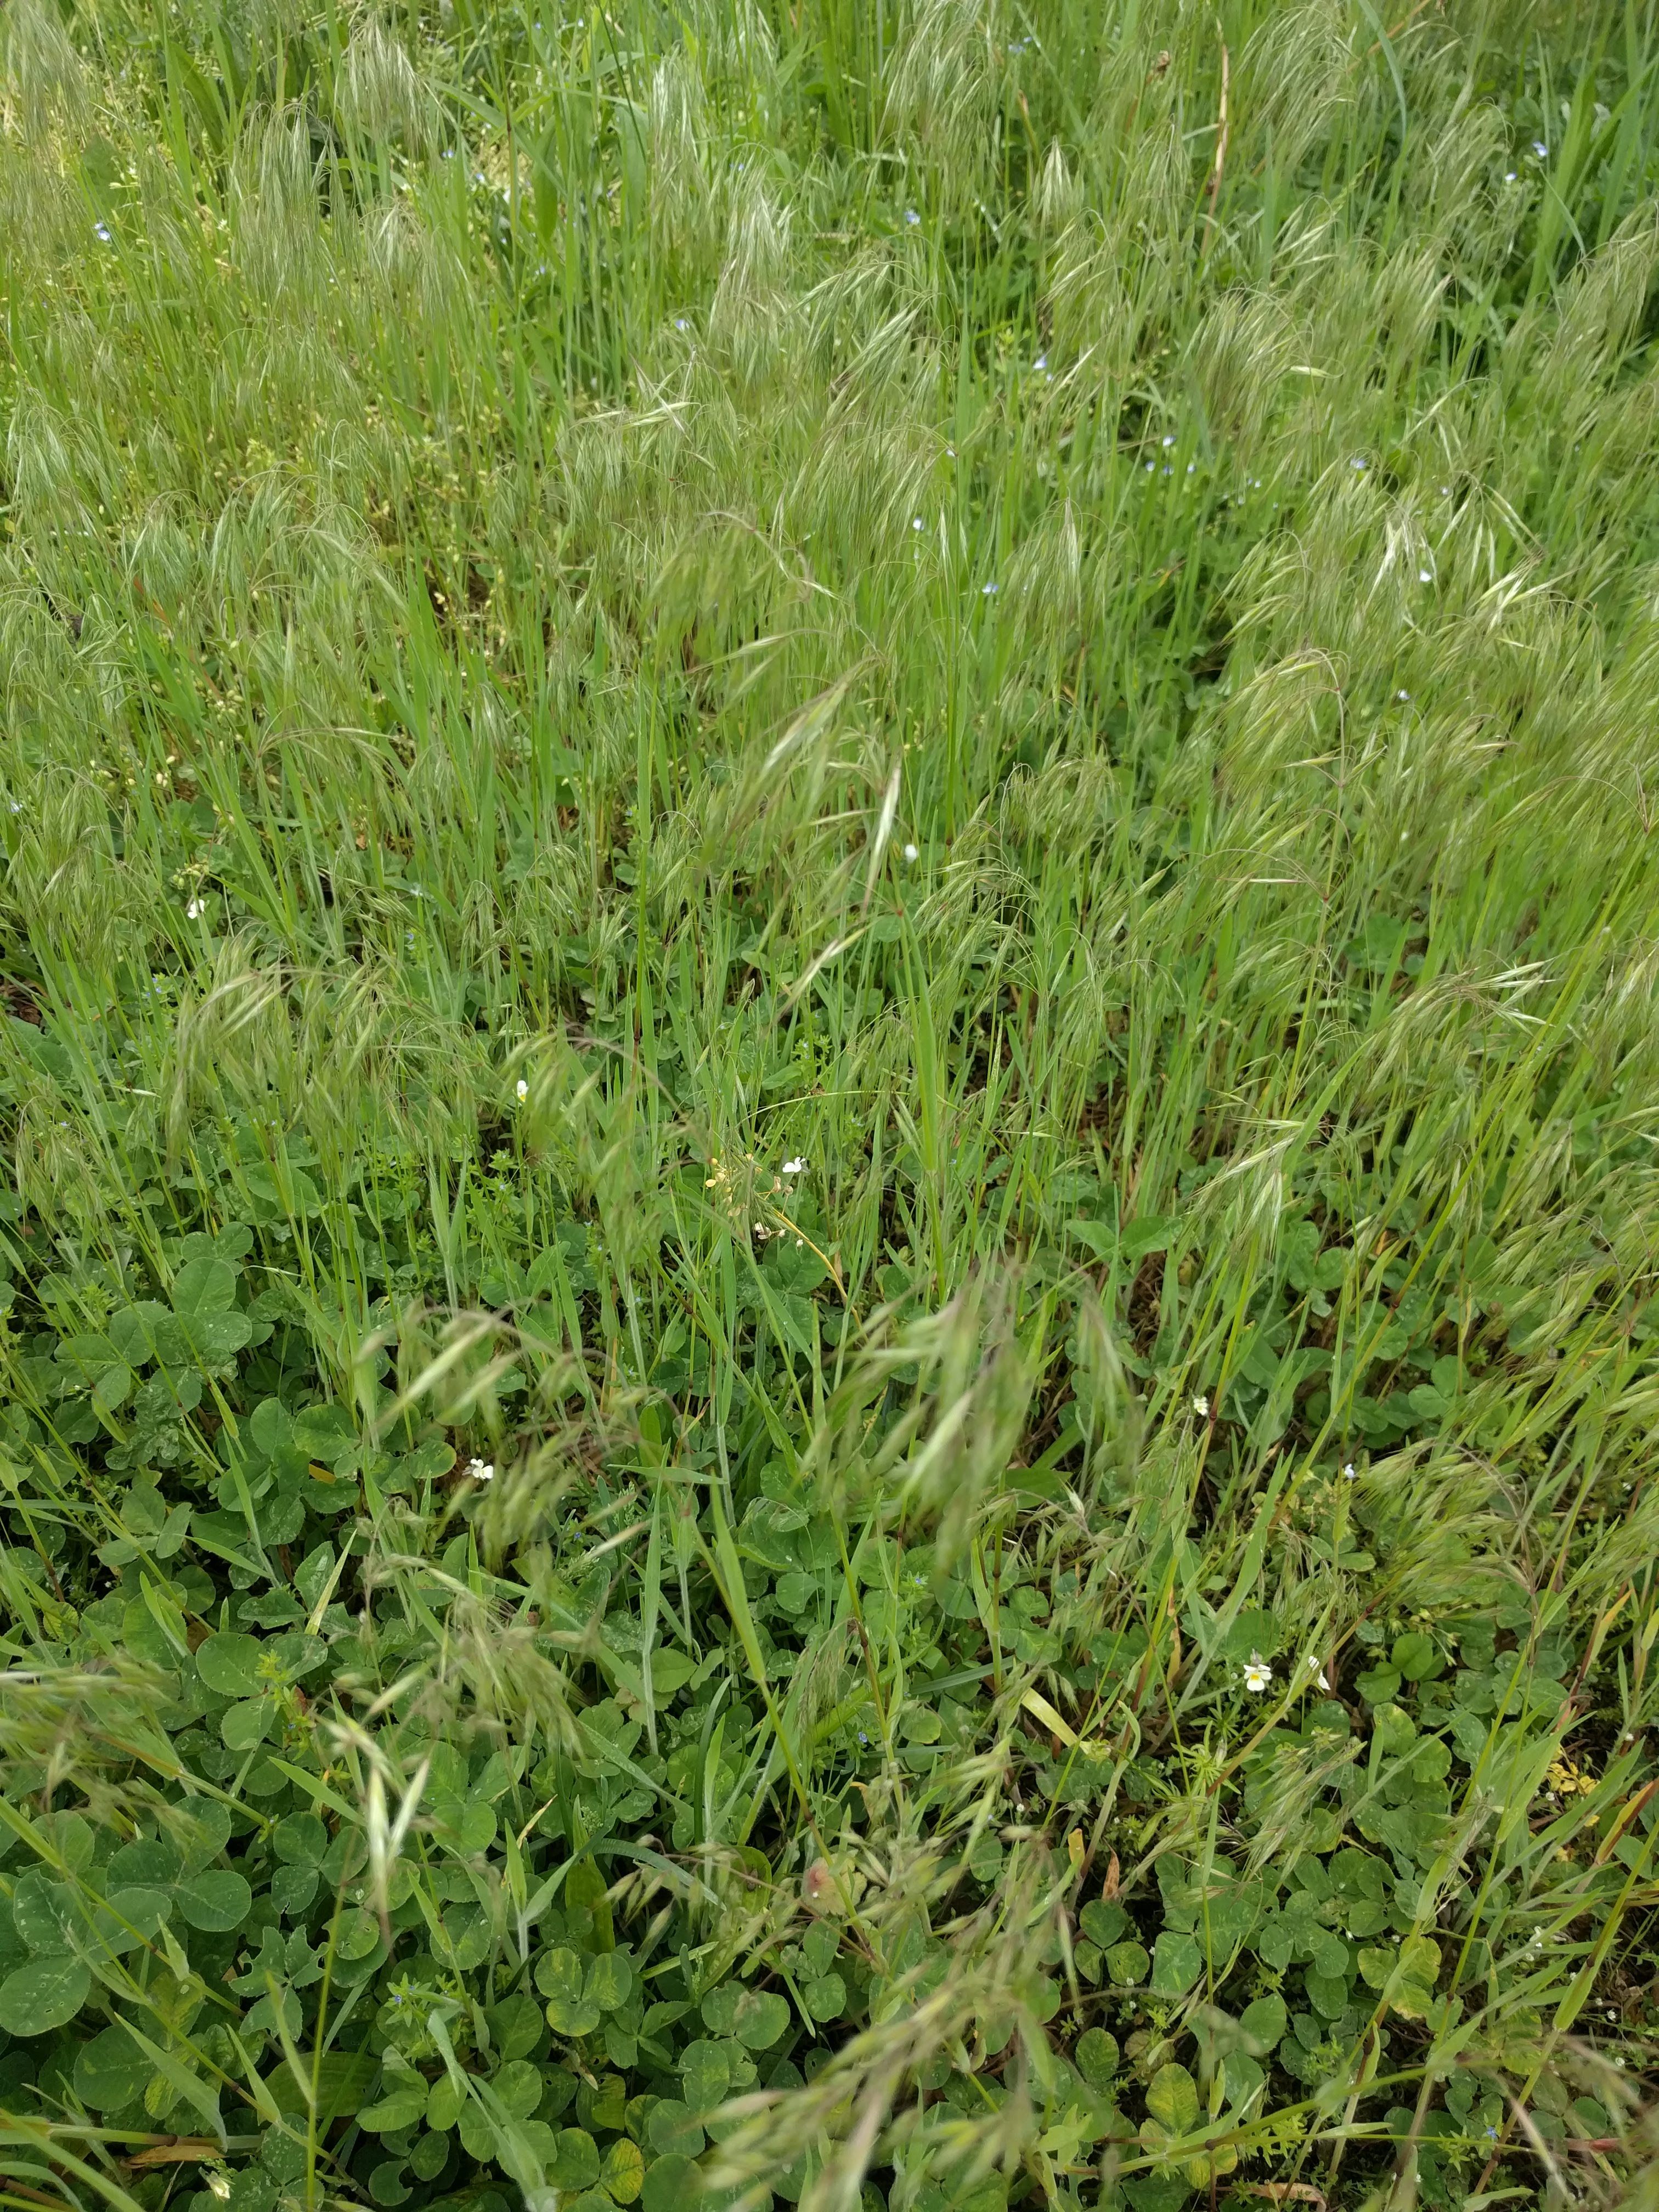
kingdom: Plantae
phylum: Tracheophyta
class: Liliopsida
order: Poales
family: Poaceae
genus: Bromus
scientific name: Bromus tectorum
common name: Cheatgrass
